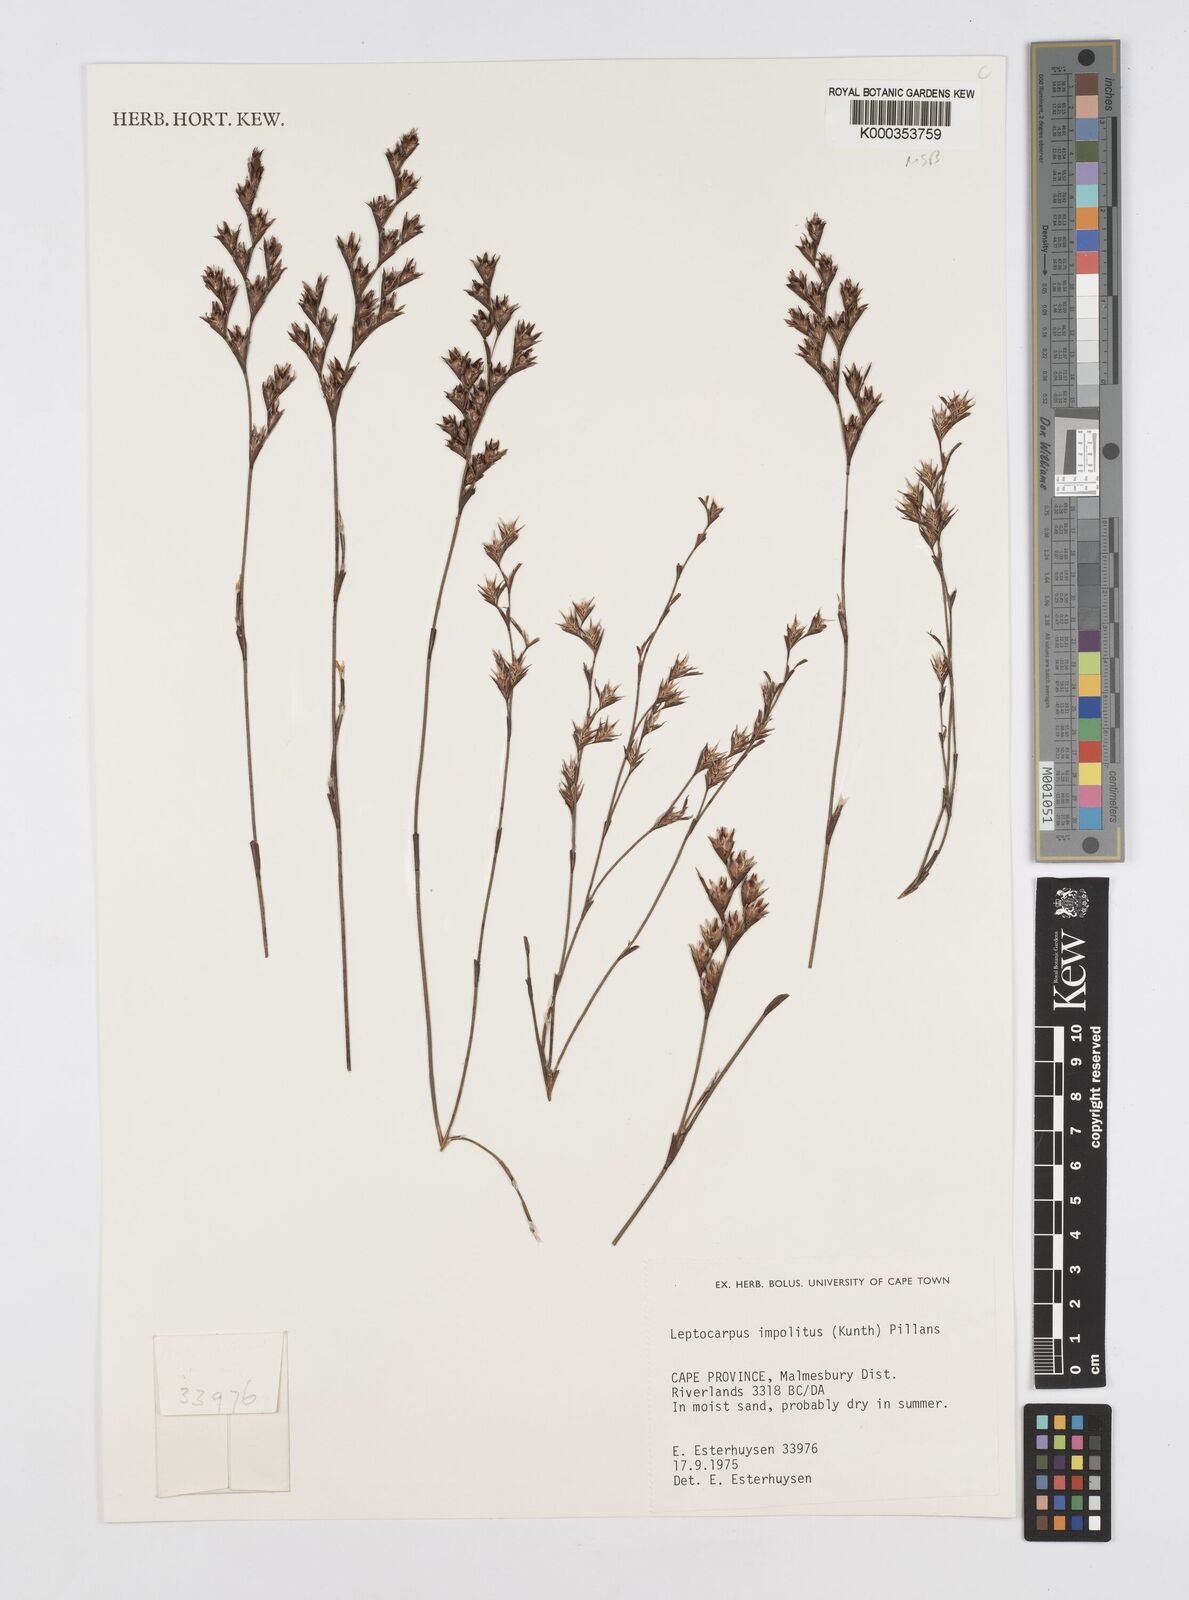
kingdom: Plantae
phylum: Tracheophyta
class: Liliopsida
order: Poales
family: Restionaceae
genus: Restio
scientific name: Restio impolitus
